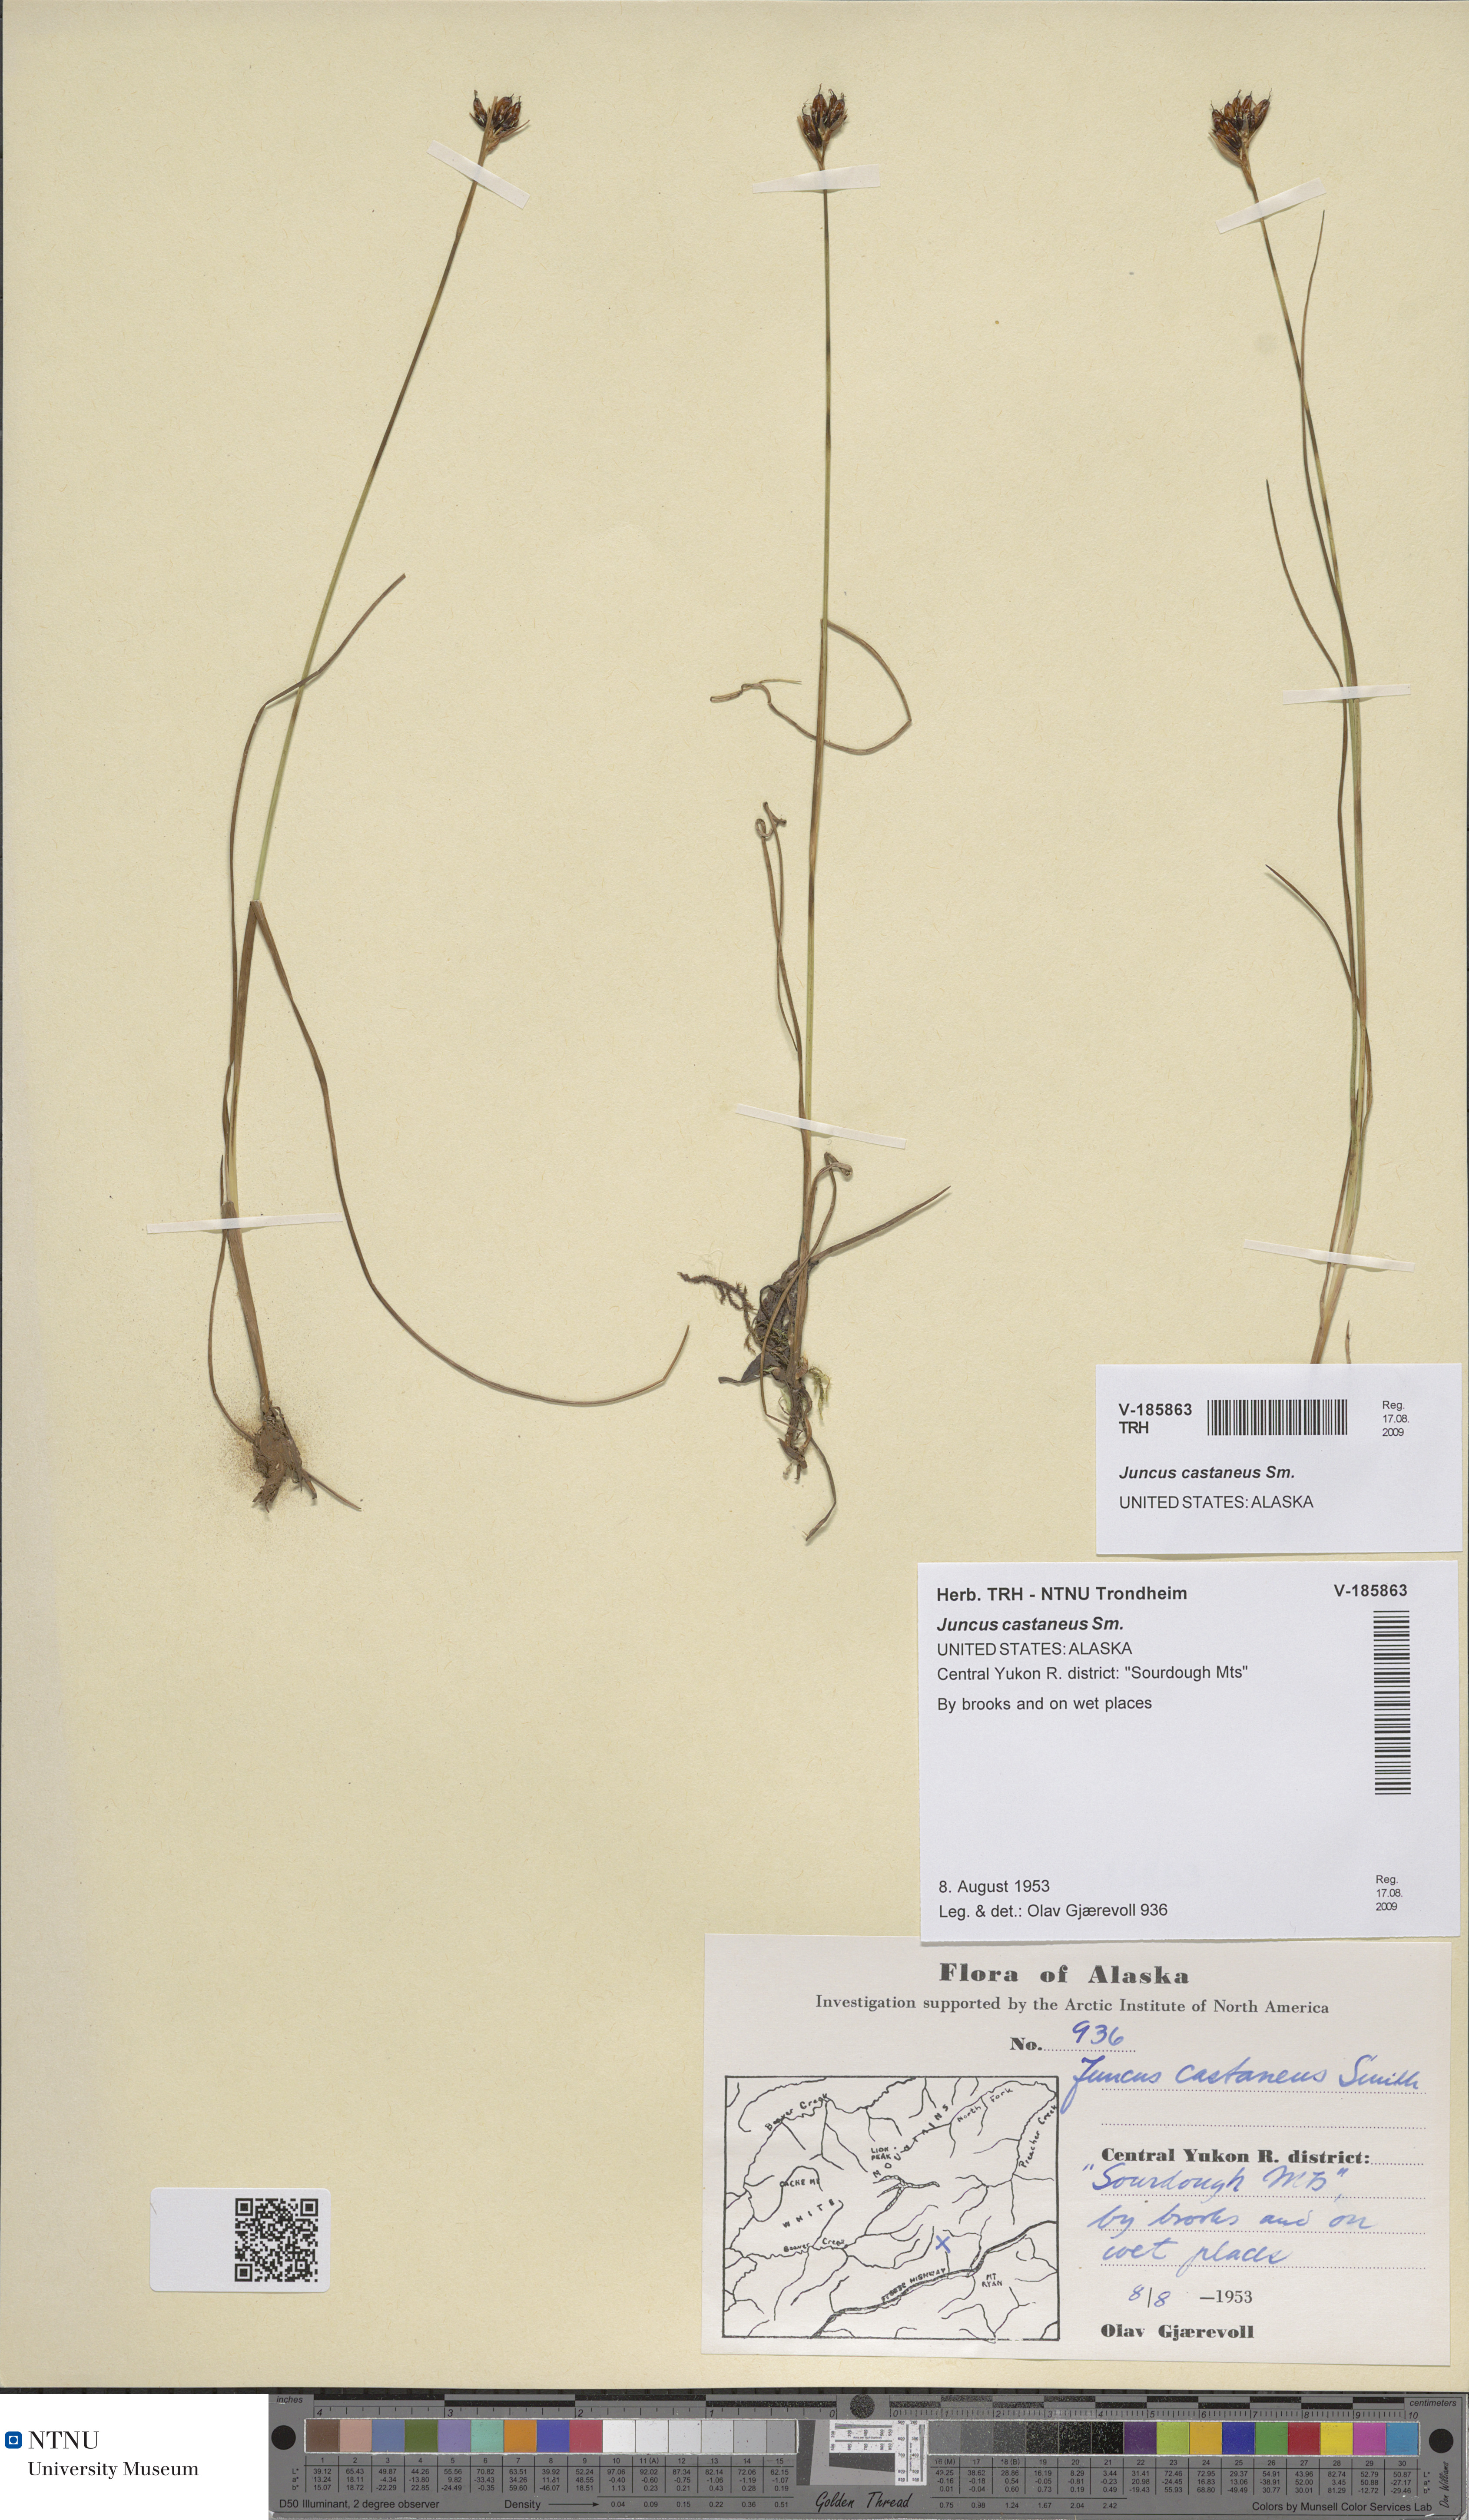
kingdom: Plantae
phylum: Tracheophyta
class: Liliopsida
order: Poales
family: Juncaceae
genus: Juncus
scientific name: Juncus castaneus
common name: Chestnut rush
